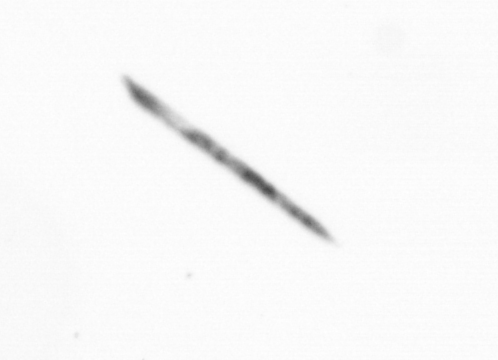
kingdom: Chromista
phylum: Ochrophyta
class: Bacillariophyceae
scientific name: Bacillariophyceae
